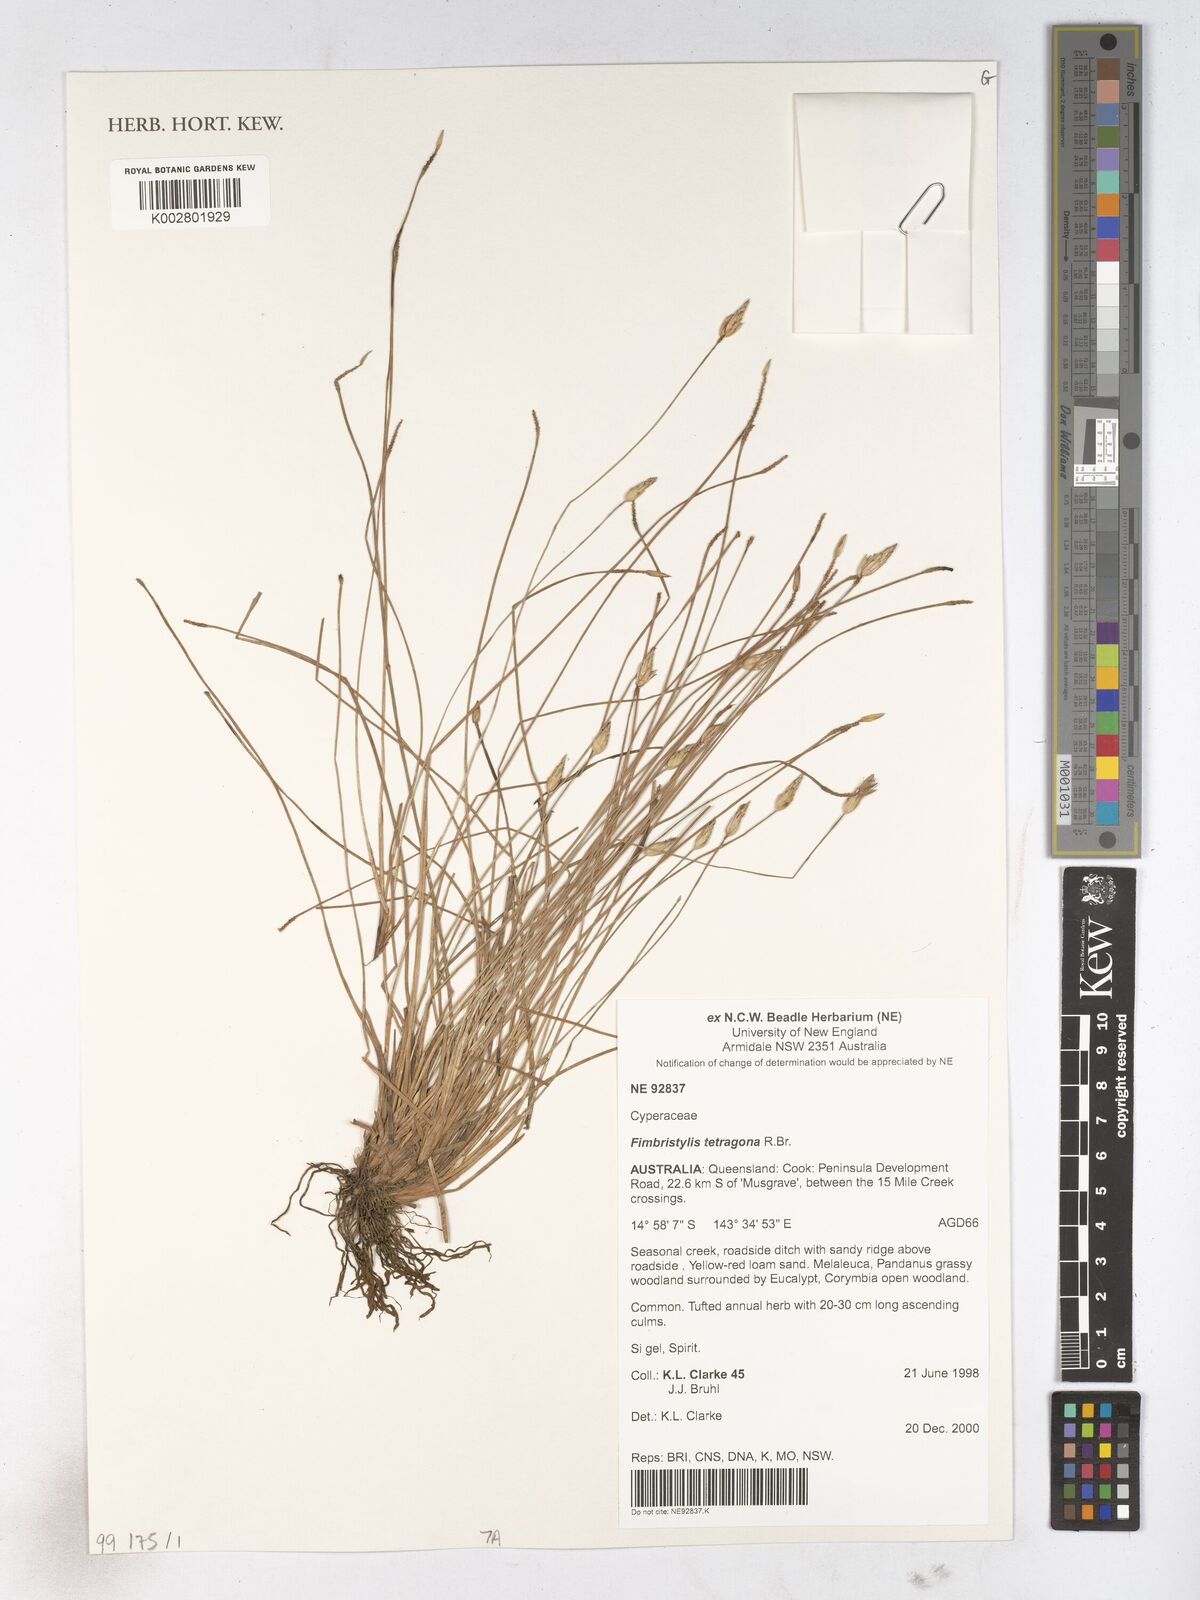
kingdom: Plantae
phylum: Tracheophyta
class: Liliopsida
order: Poales
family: Cyperaceae
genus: Fimbristylis
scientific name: Fimbristylis tetragona
